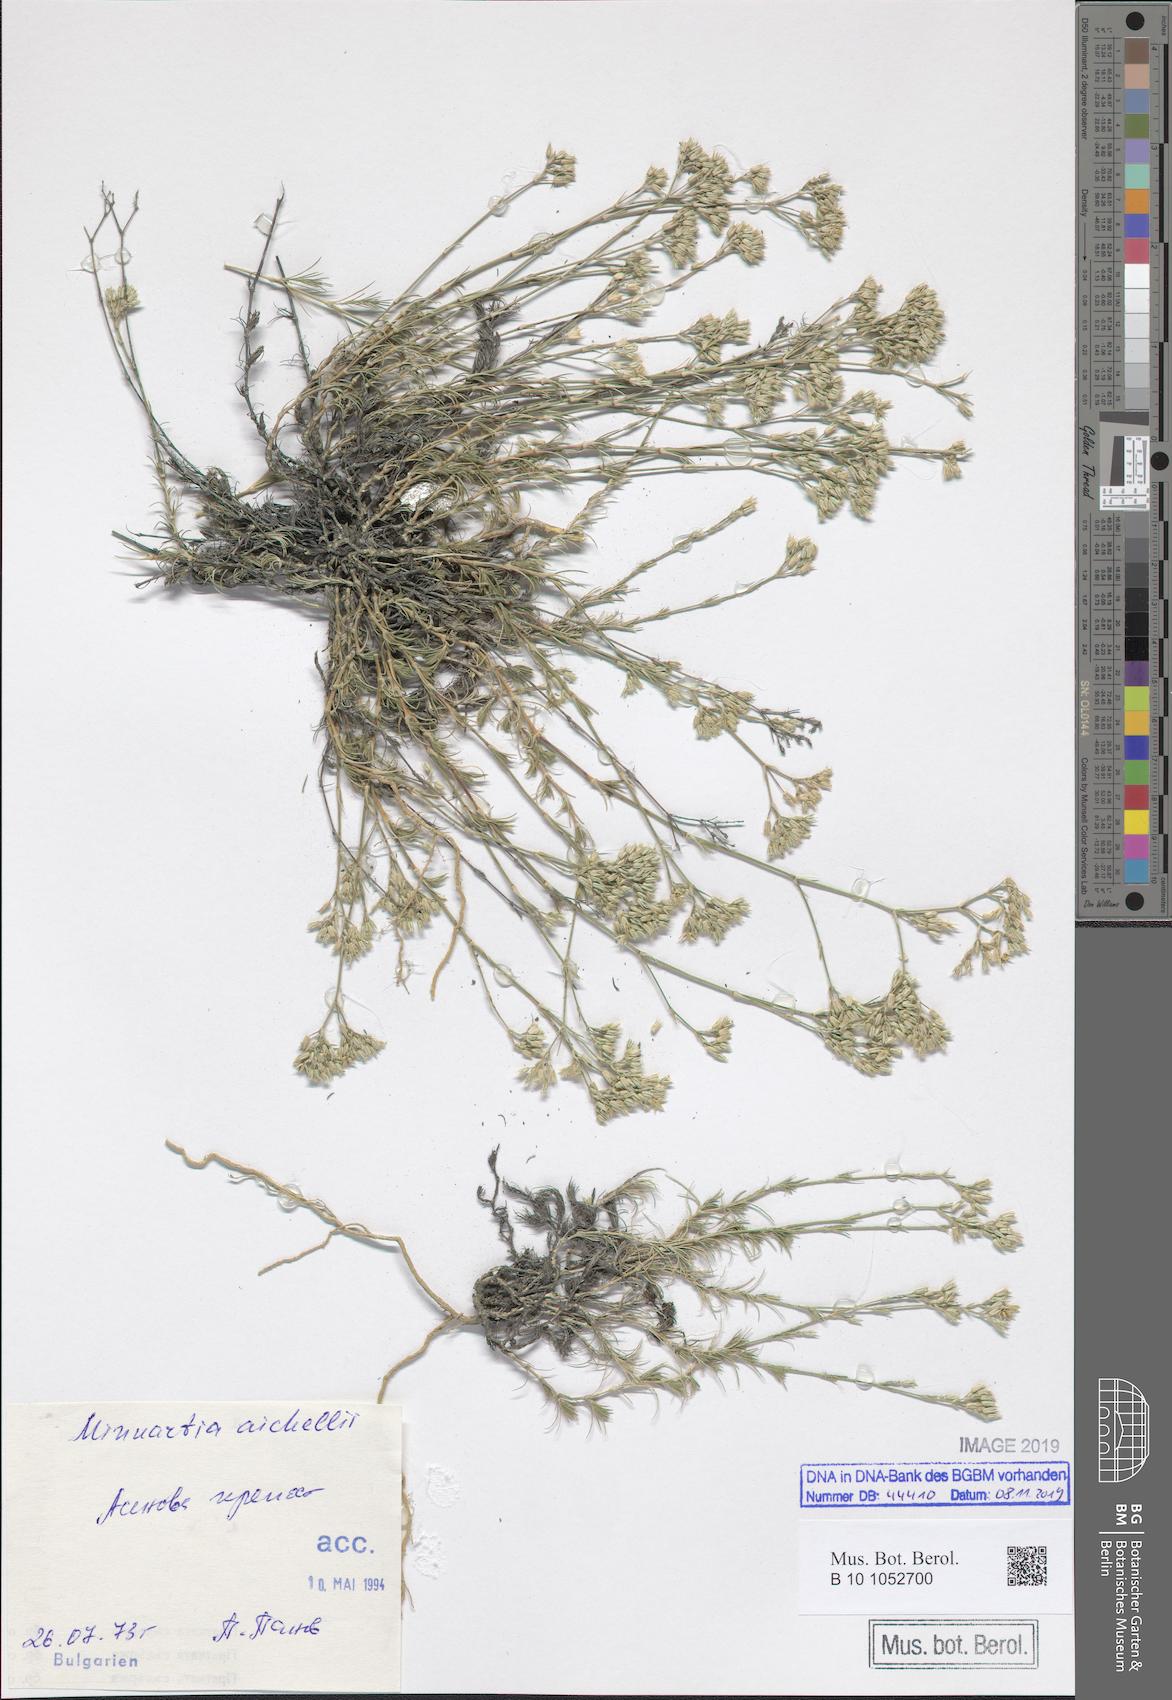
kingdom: Plantae
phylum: Tracheophyta
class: Magnoliopsida
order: Caryophyllales
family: Caryophyllaceae
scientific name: Caryophyllaceae
